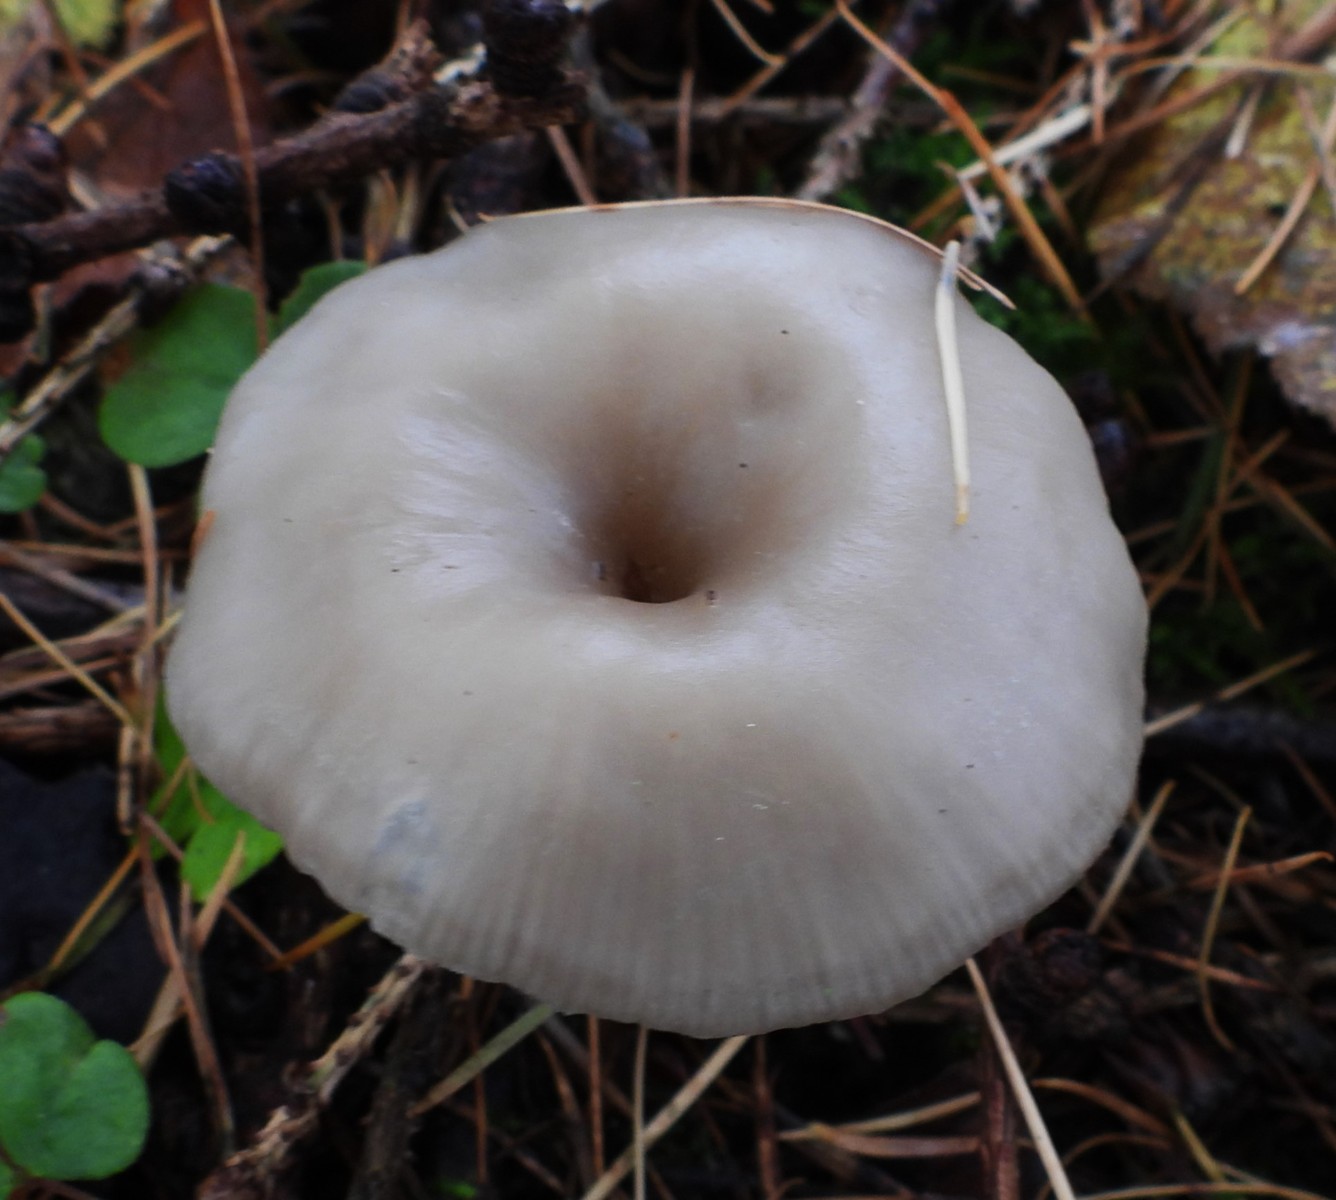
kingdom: Fungi
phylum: Basidiomycota
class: Agaricomycetes
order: Agaricales
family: Pseudoclitocybaceae
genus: Pseudoclitocybe
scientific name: Pseudoclitocybe cyathiformis
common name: almindelig bægertragthat
